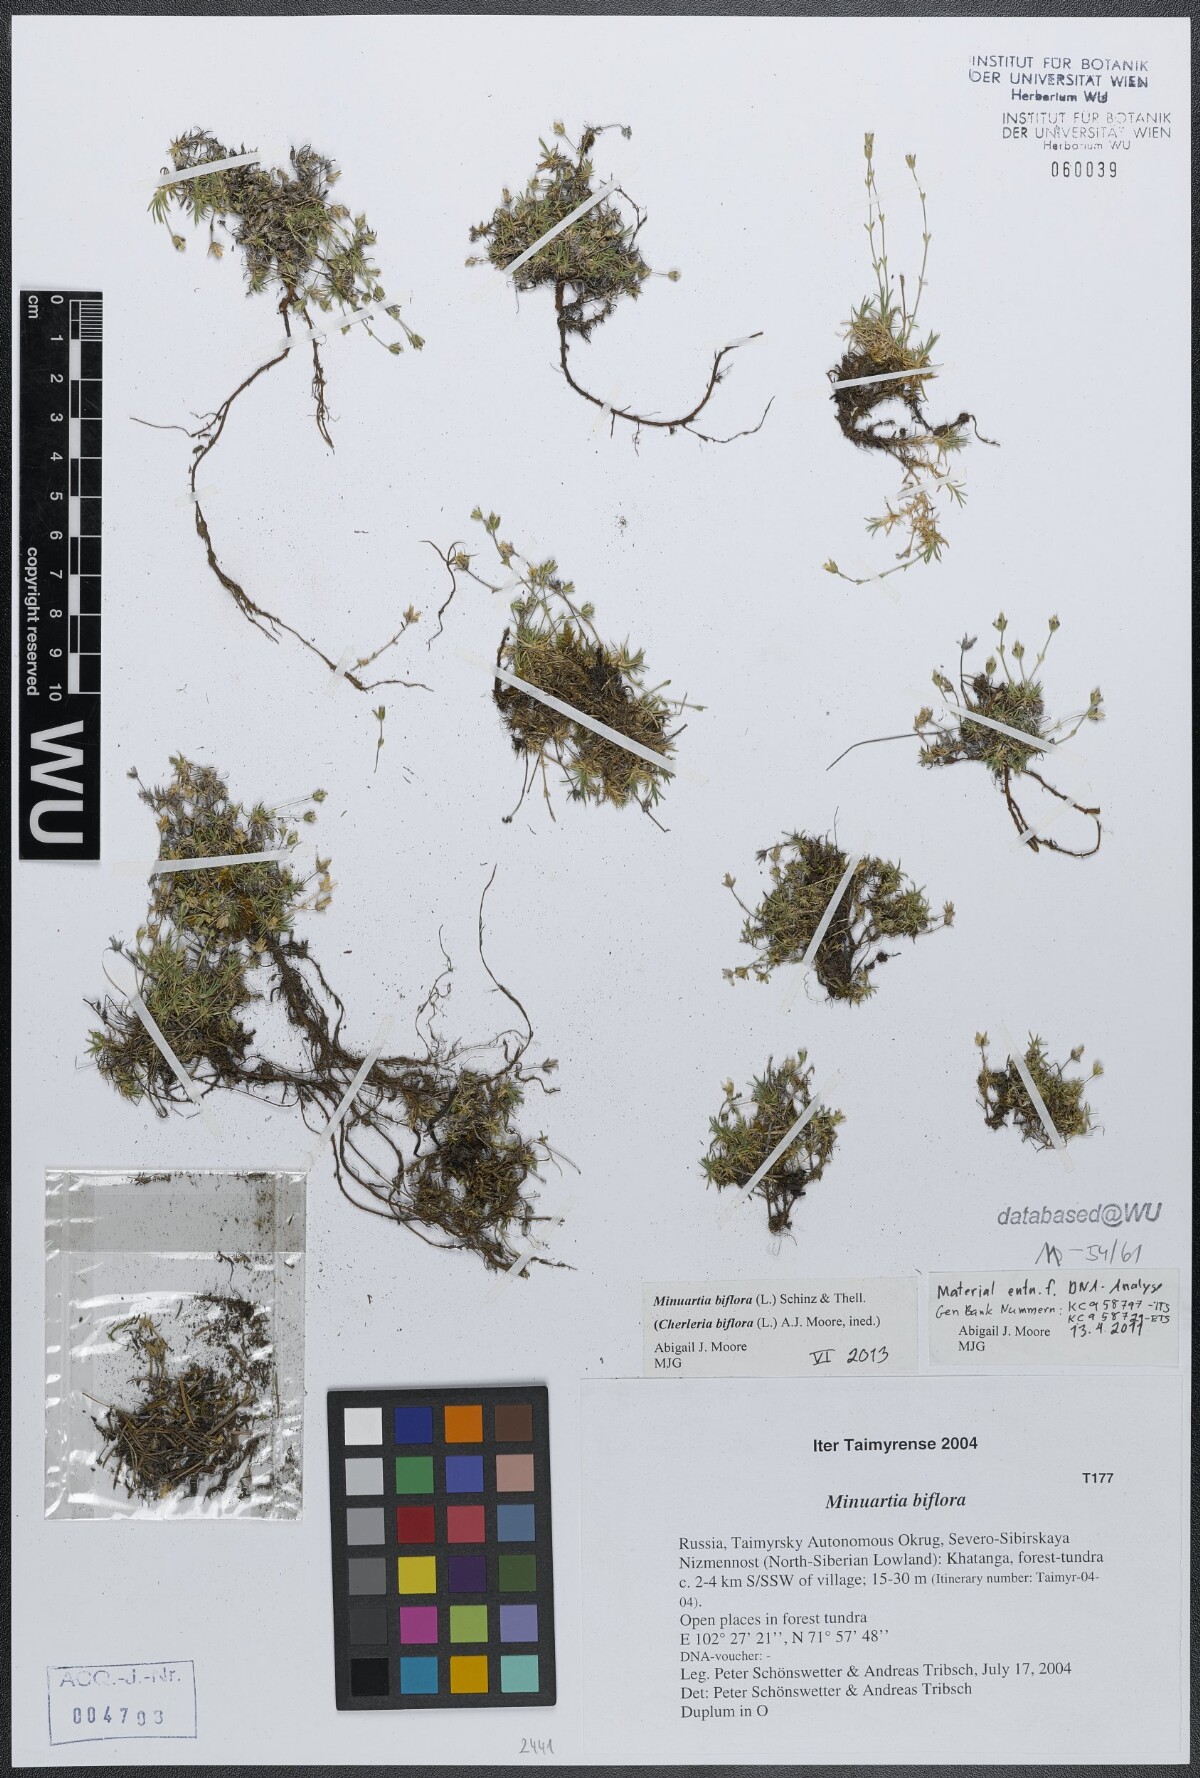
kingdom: Plantae
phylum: Tracheophyta
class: Magnoliopsida
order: Caryophyllales
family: Caryophyllaceae
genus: Cherleria
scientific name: Cherleria biflora
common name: Mountain sandwort
